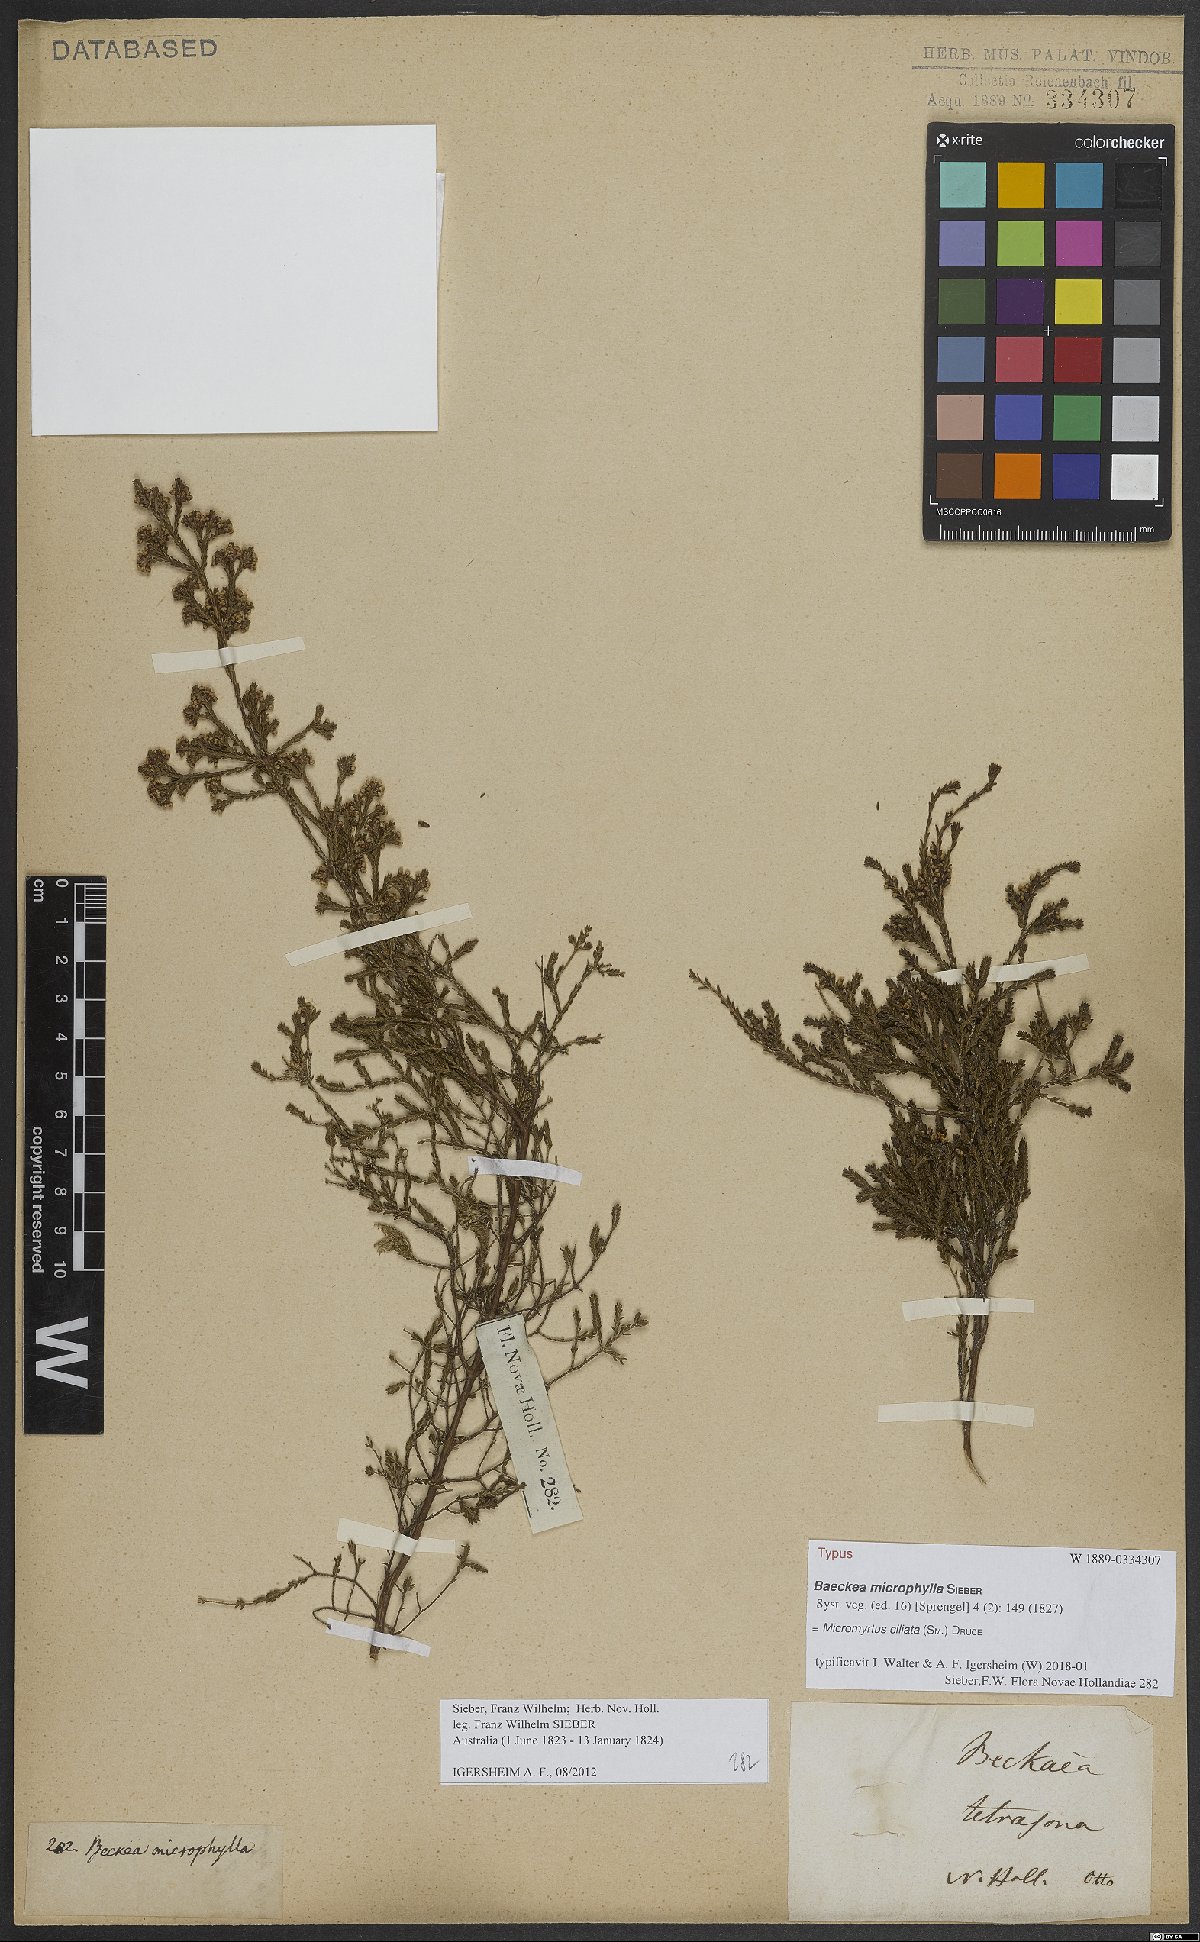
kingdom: Plantae
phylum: Tracheophyta
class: Magnoliopsida
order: Myrtales
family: Myrtaceae
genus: Micromyrtus
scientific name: Micromyrtus ciliata
